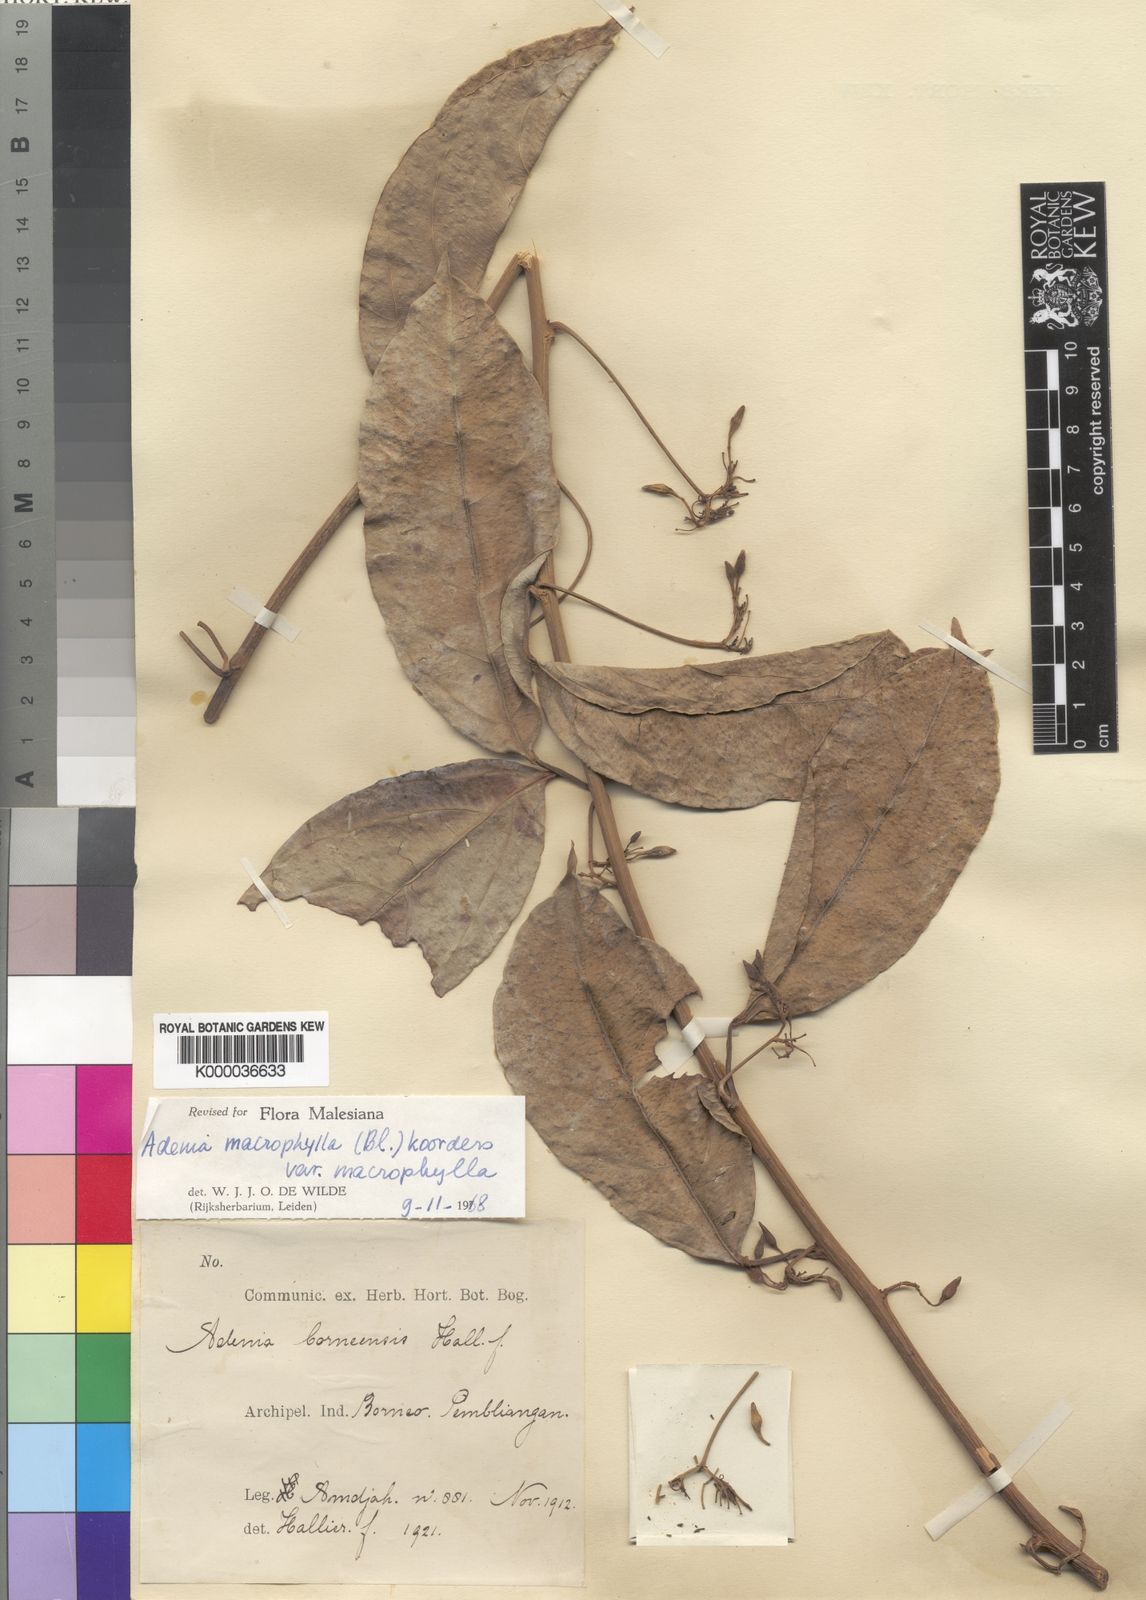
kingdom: Plantae
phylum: Tracheophyta
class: Magnoliopsida
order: Malpighiales
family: Passifloraceae
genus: Adenia
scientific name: Adenia macrophylla
